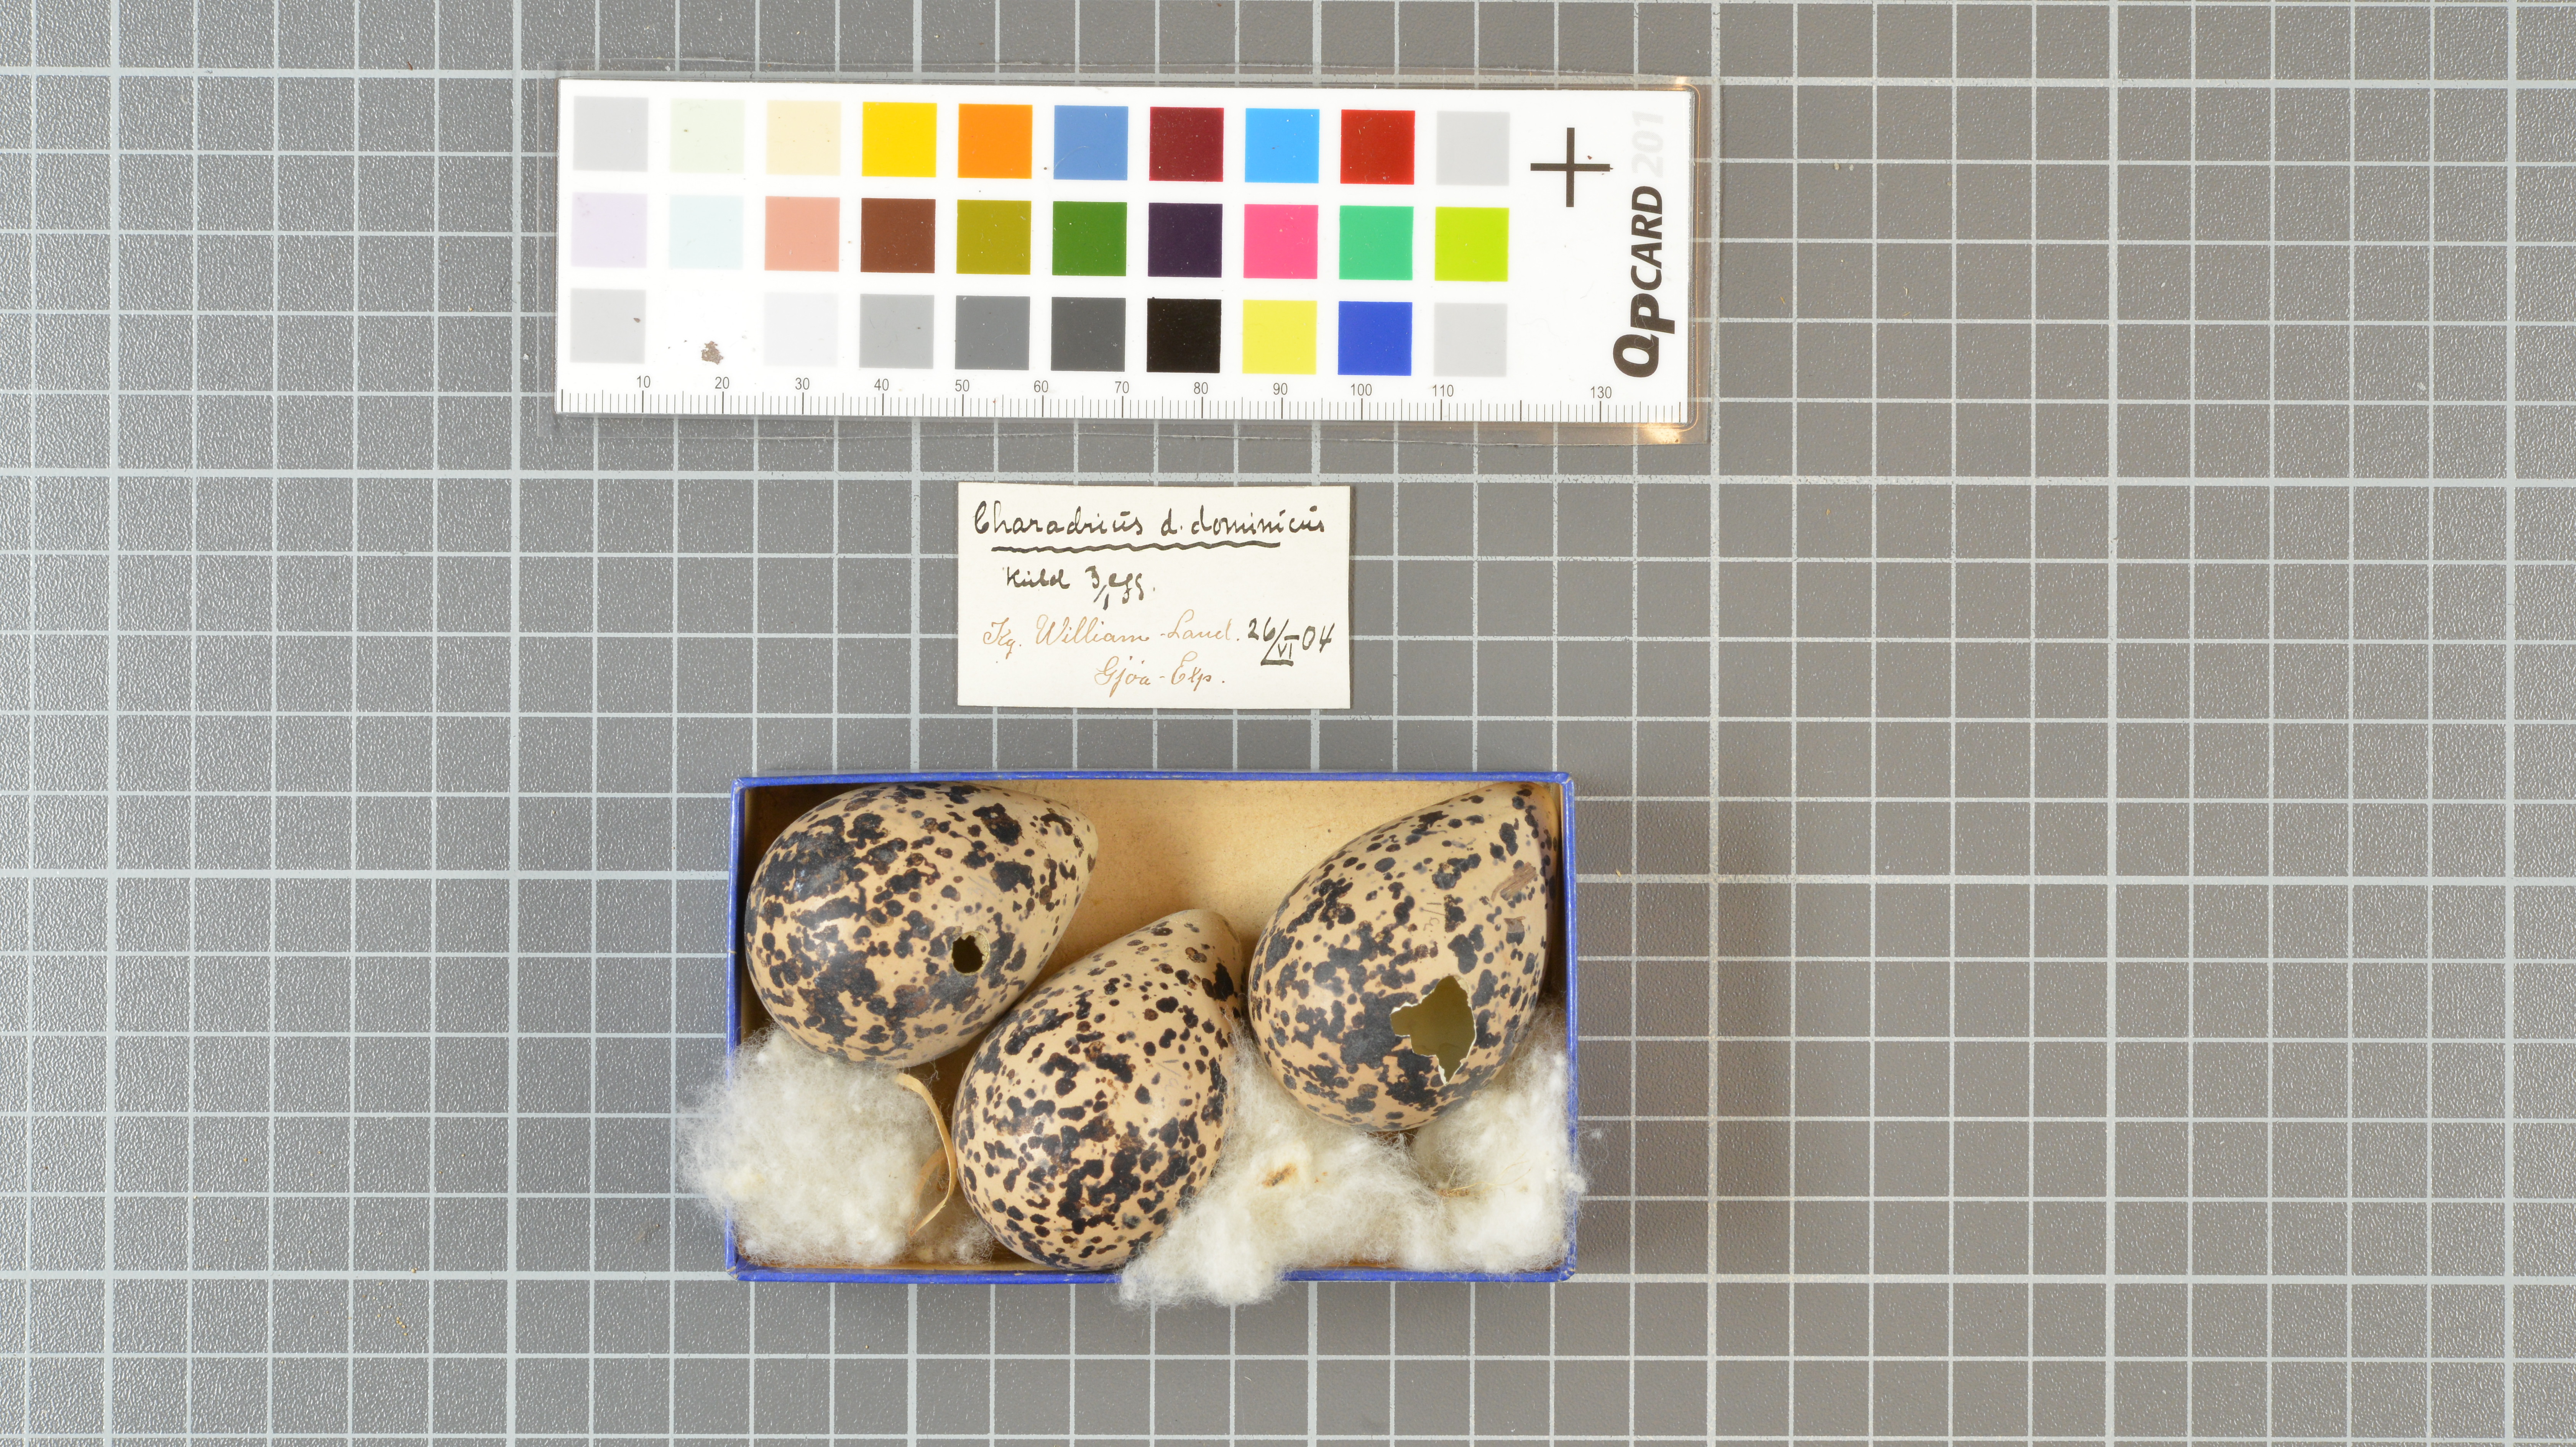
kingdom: Animalia
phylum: Chordata
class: Aves
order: Charadriiformes
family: Charadriidae
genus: Pluvialis
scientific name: Pluvialis dominica
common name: American golden plover
